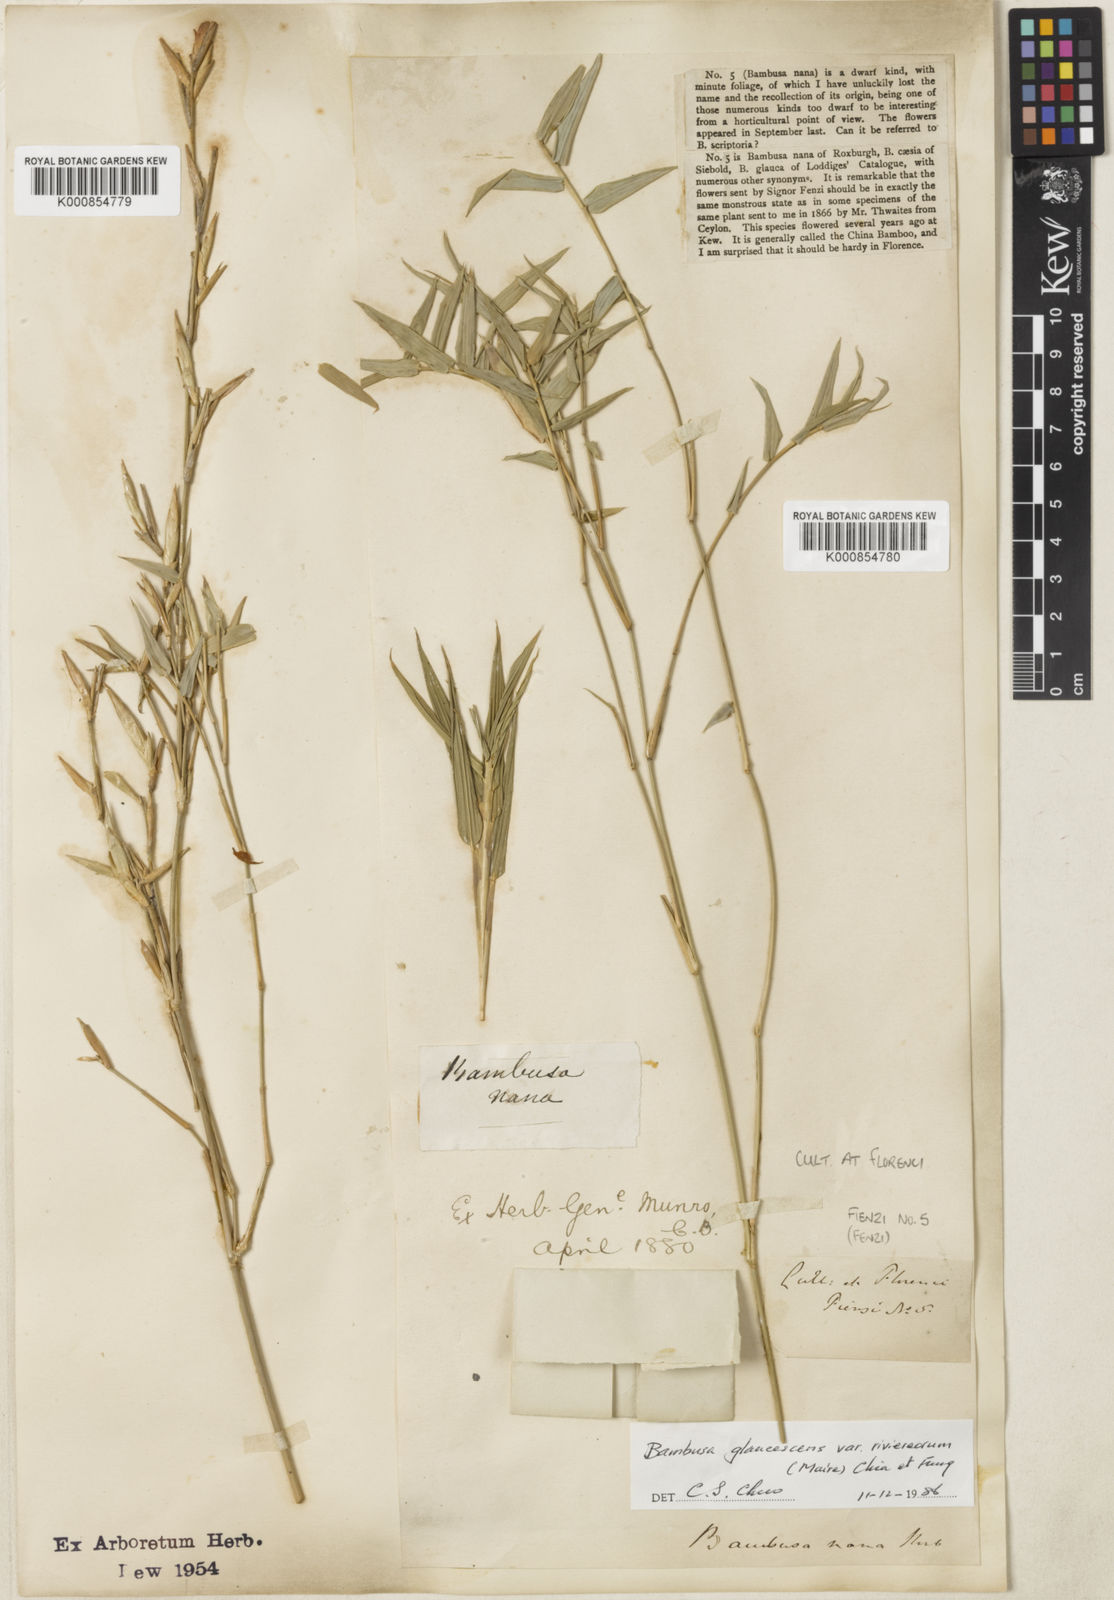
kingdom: Plantae
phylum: Tracheophyta
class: Liliopsida
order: Poales
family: Poaceae
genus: Bambusa
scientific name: Bambusa multiplex
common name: Hedge bamboo
